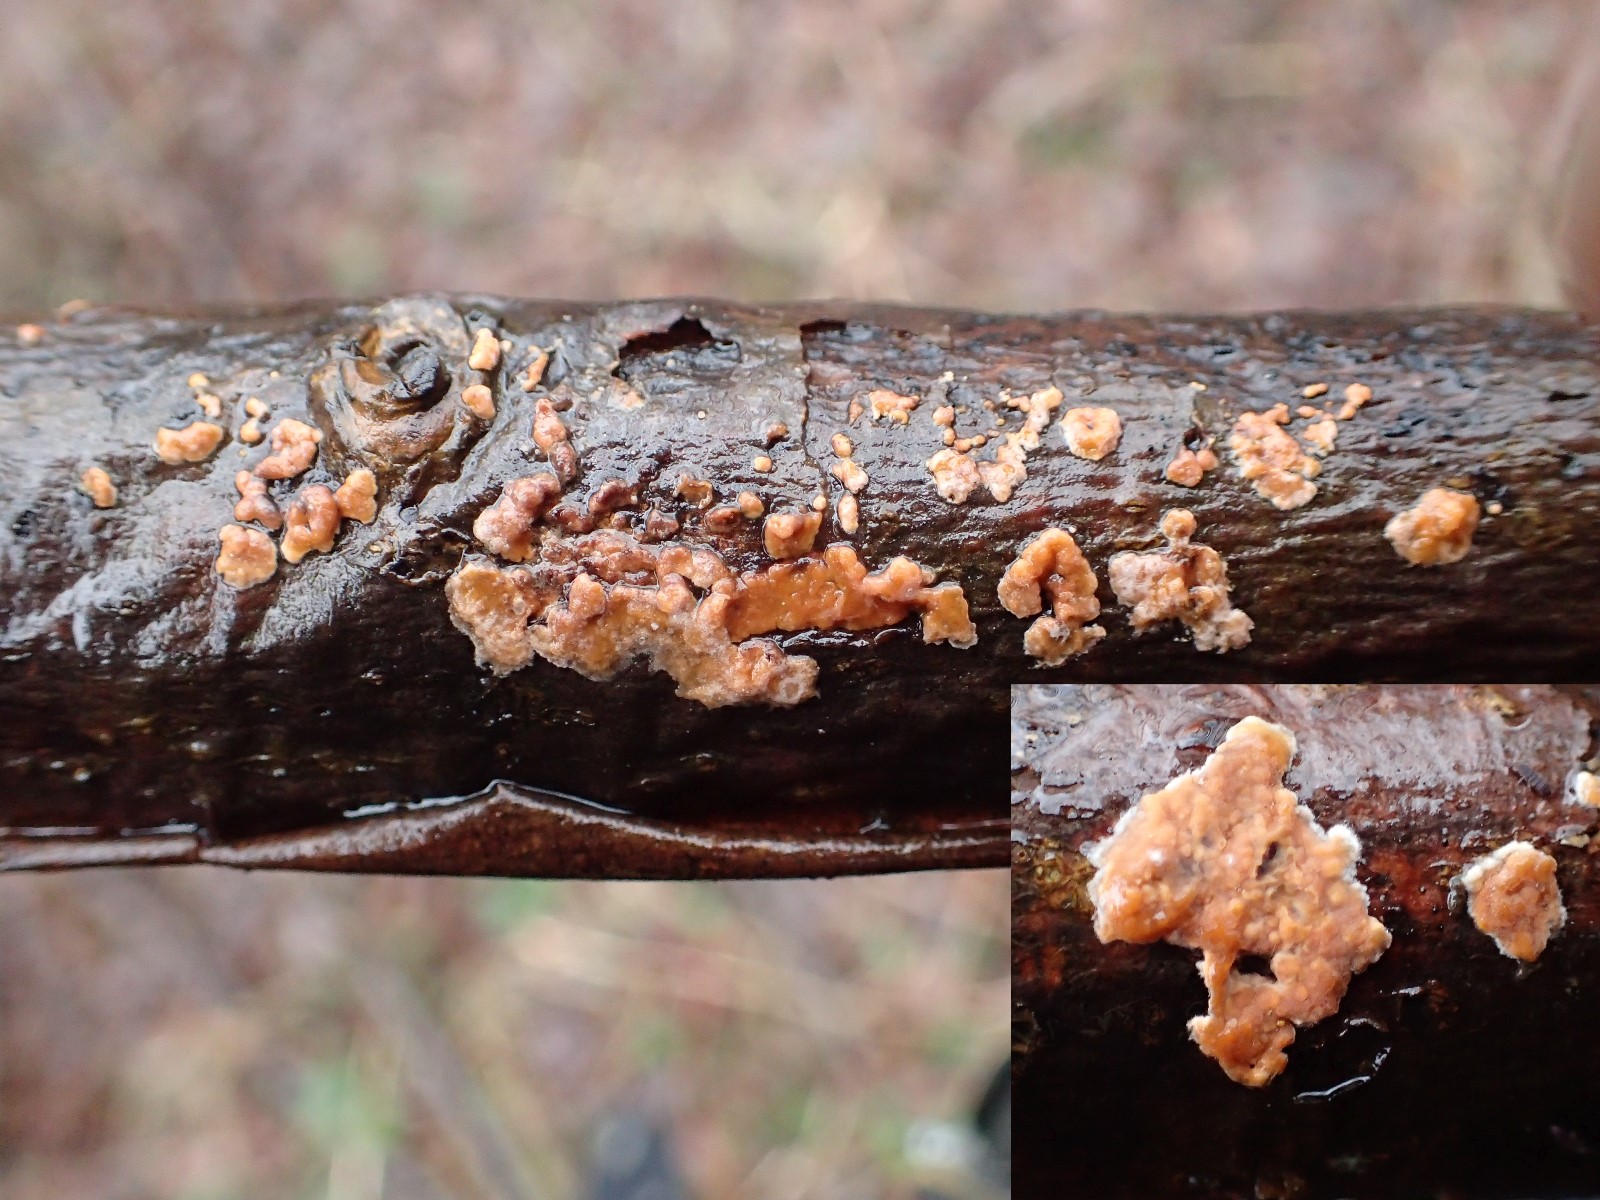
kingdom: Fungi
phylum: Basidiomycota
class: Agaricomycetes
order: Russulales
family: Peniophoraceae
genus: Peniophora
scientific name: Peniophora incarnata
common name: laksefarvet voksskind
